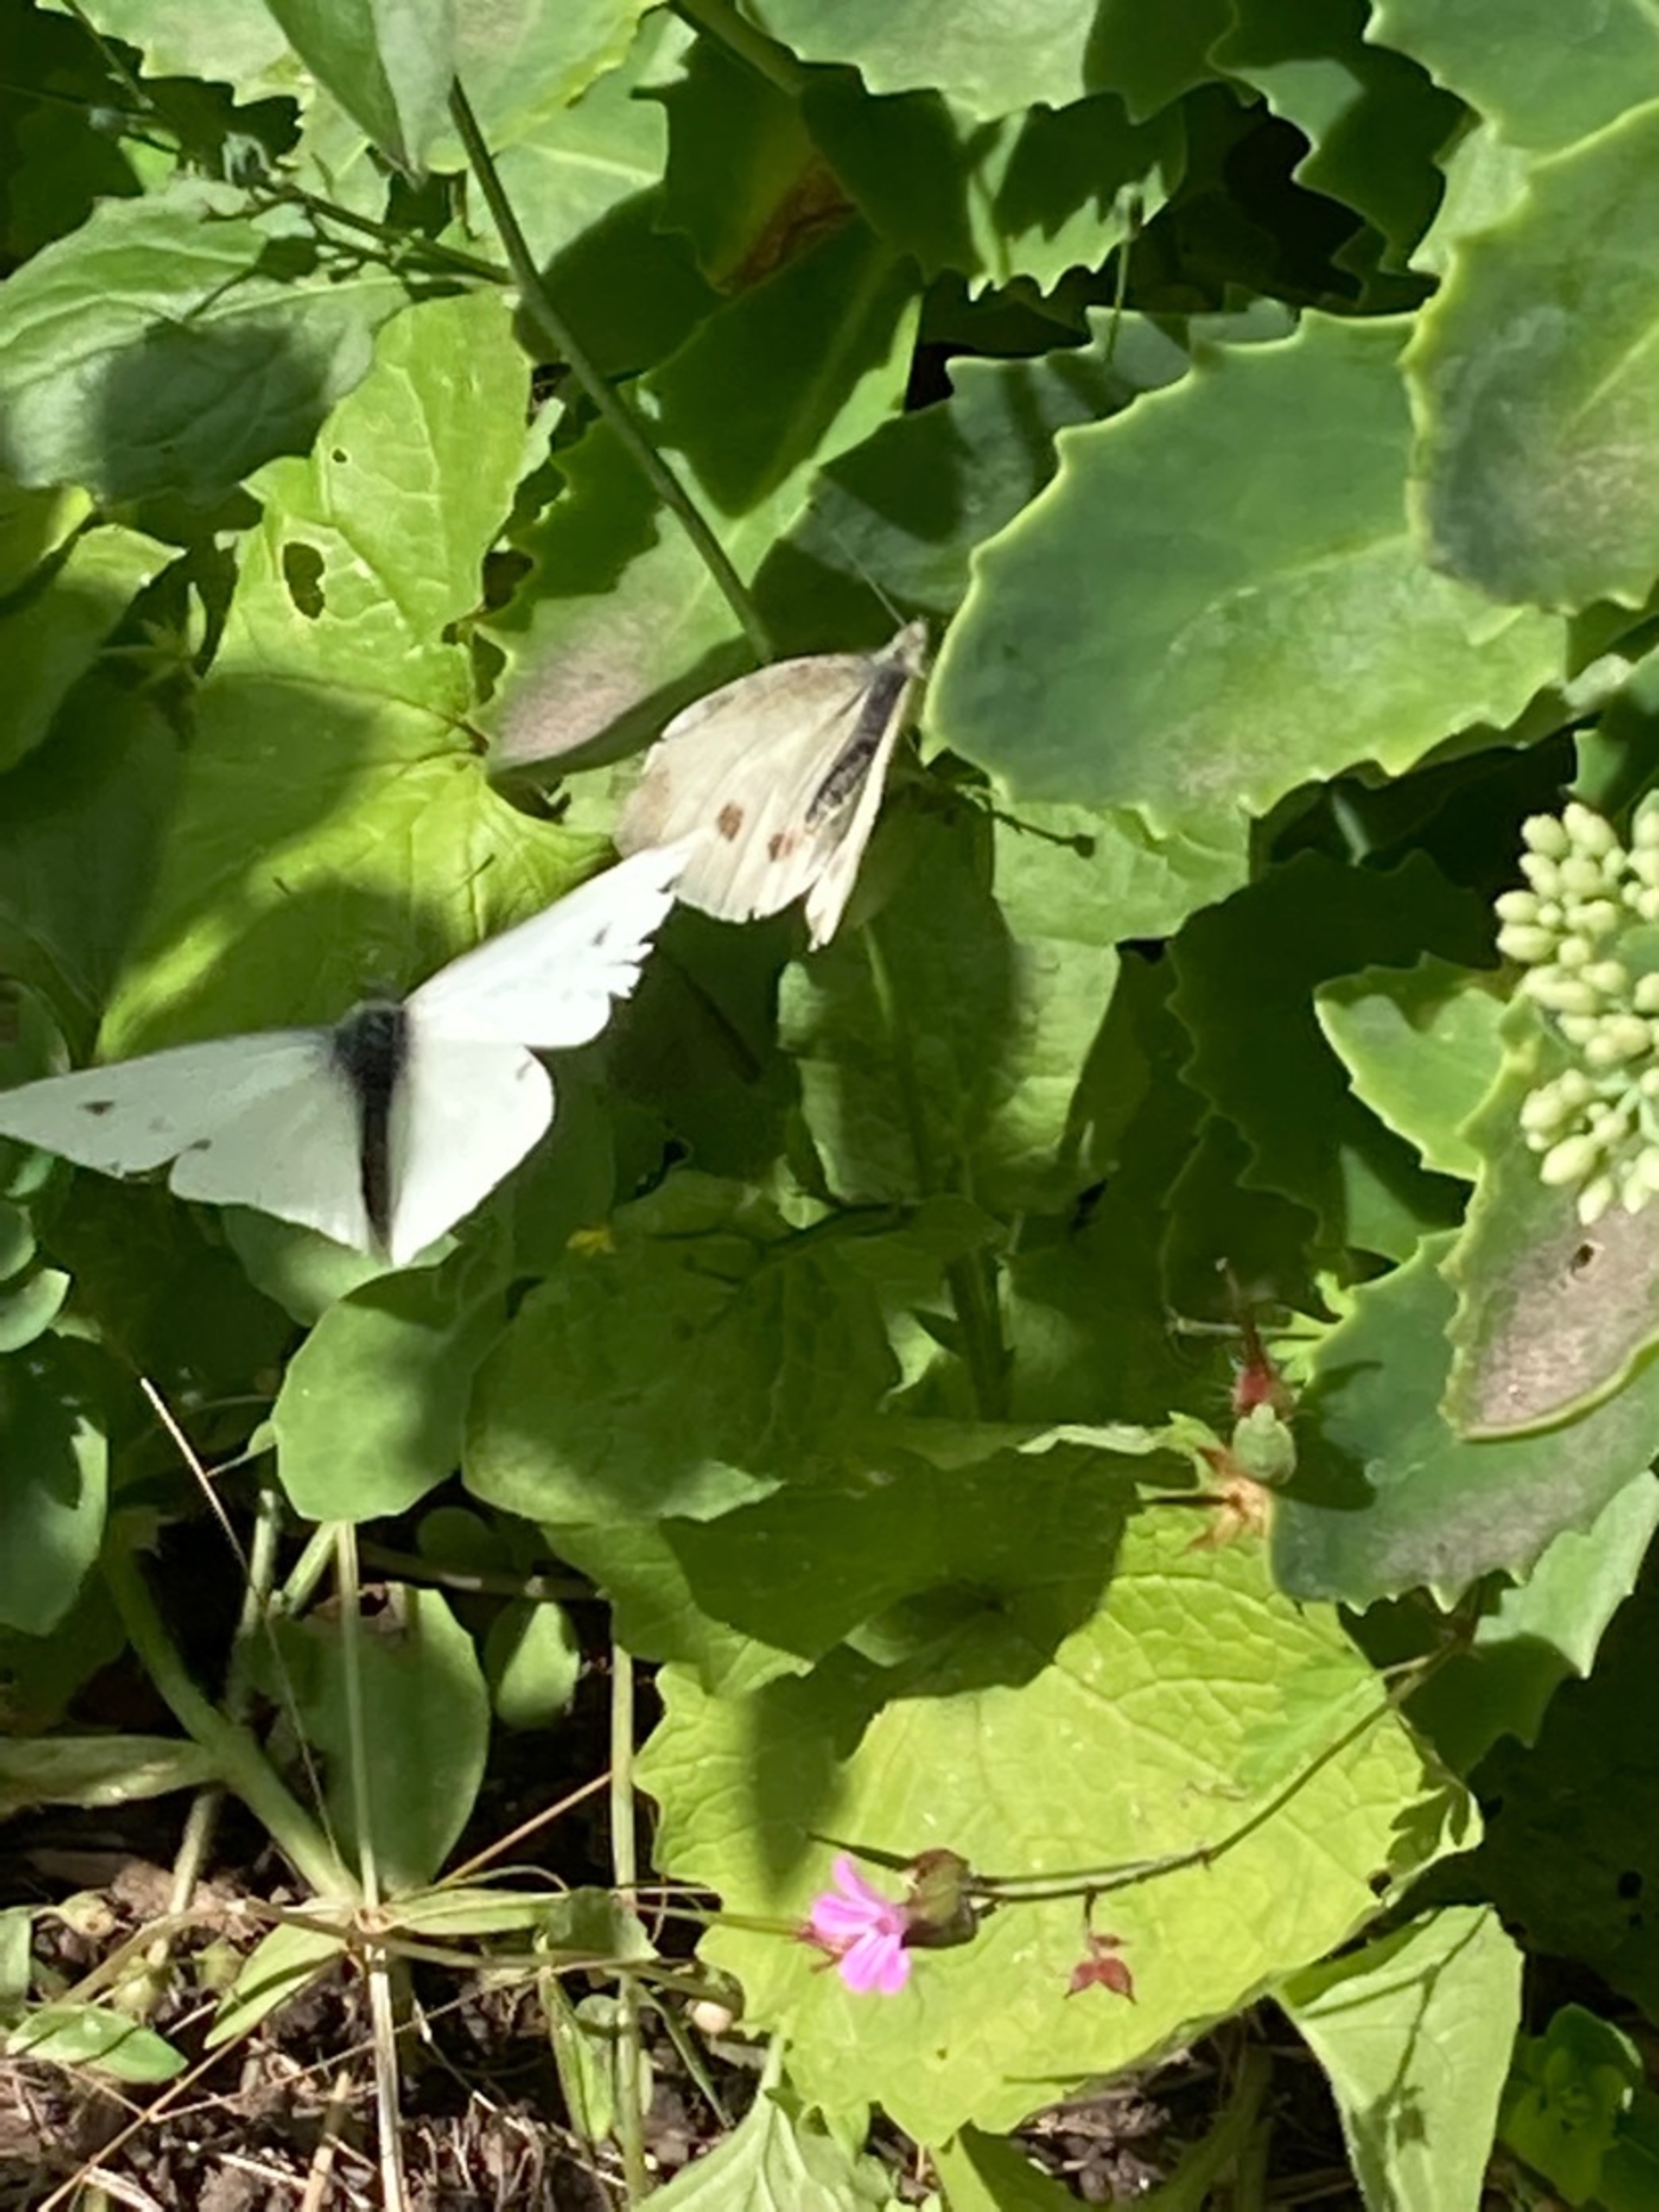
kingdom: Animalia
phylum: Arthropoda
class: Insecta
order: Lepidoptera
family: Pieridae
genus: Pieris
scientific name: Pieris rapae
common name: Lille kålsommerfugl
